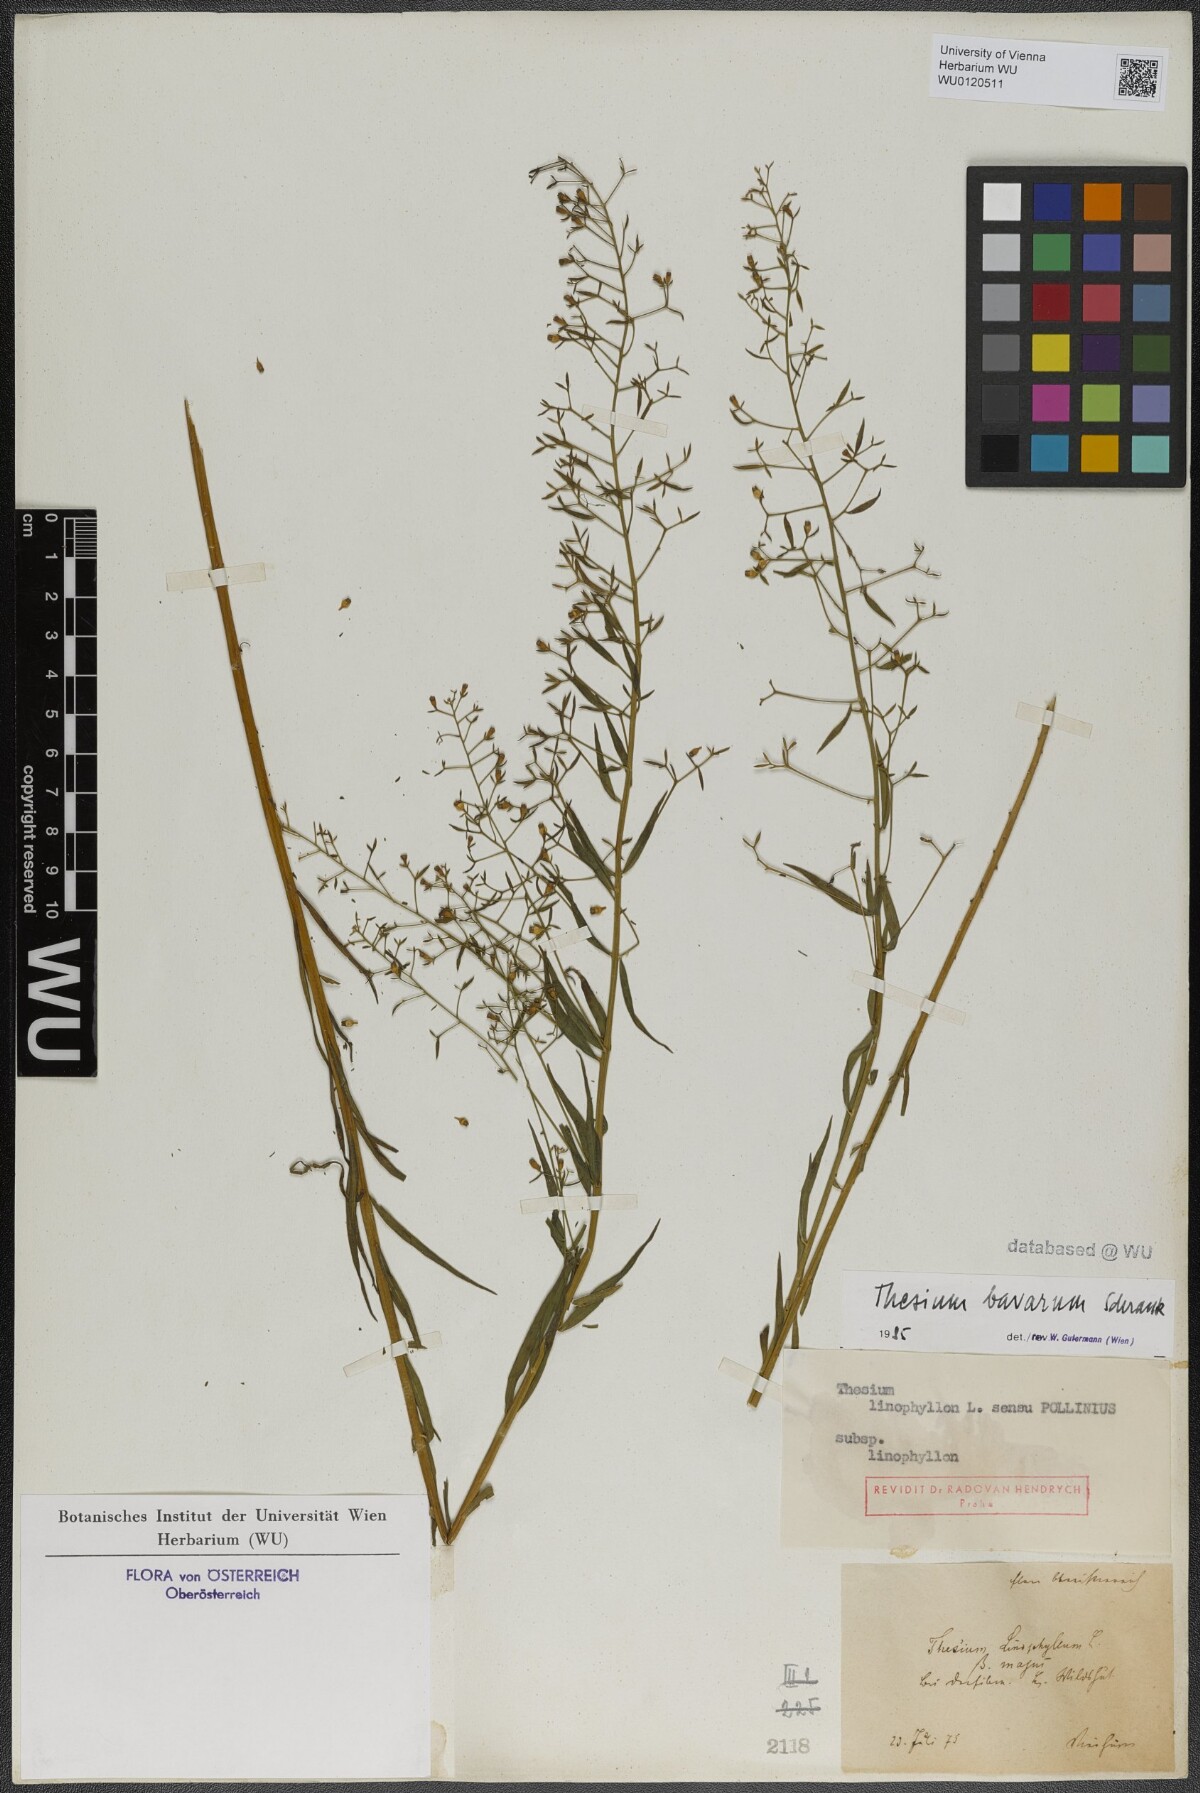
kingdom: Plantae
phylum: Tracheophyta
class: Magnoliopsida
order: Santalales
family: Thesiaceae
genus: Thesium
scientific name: Thesium bavarum
